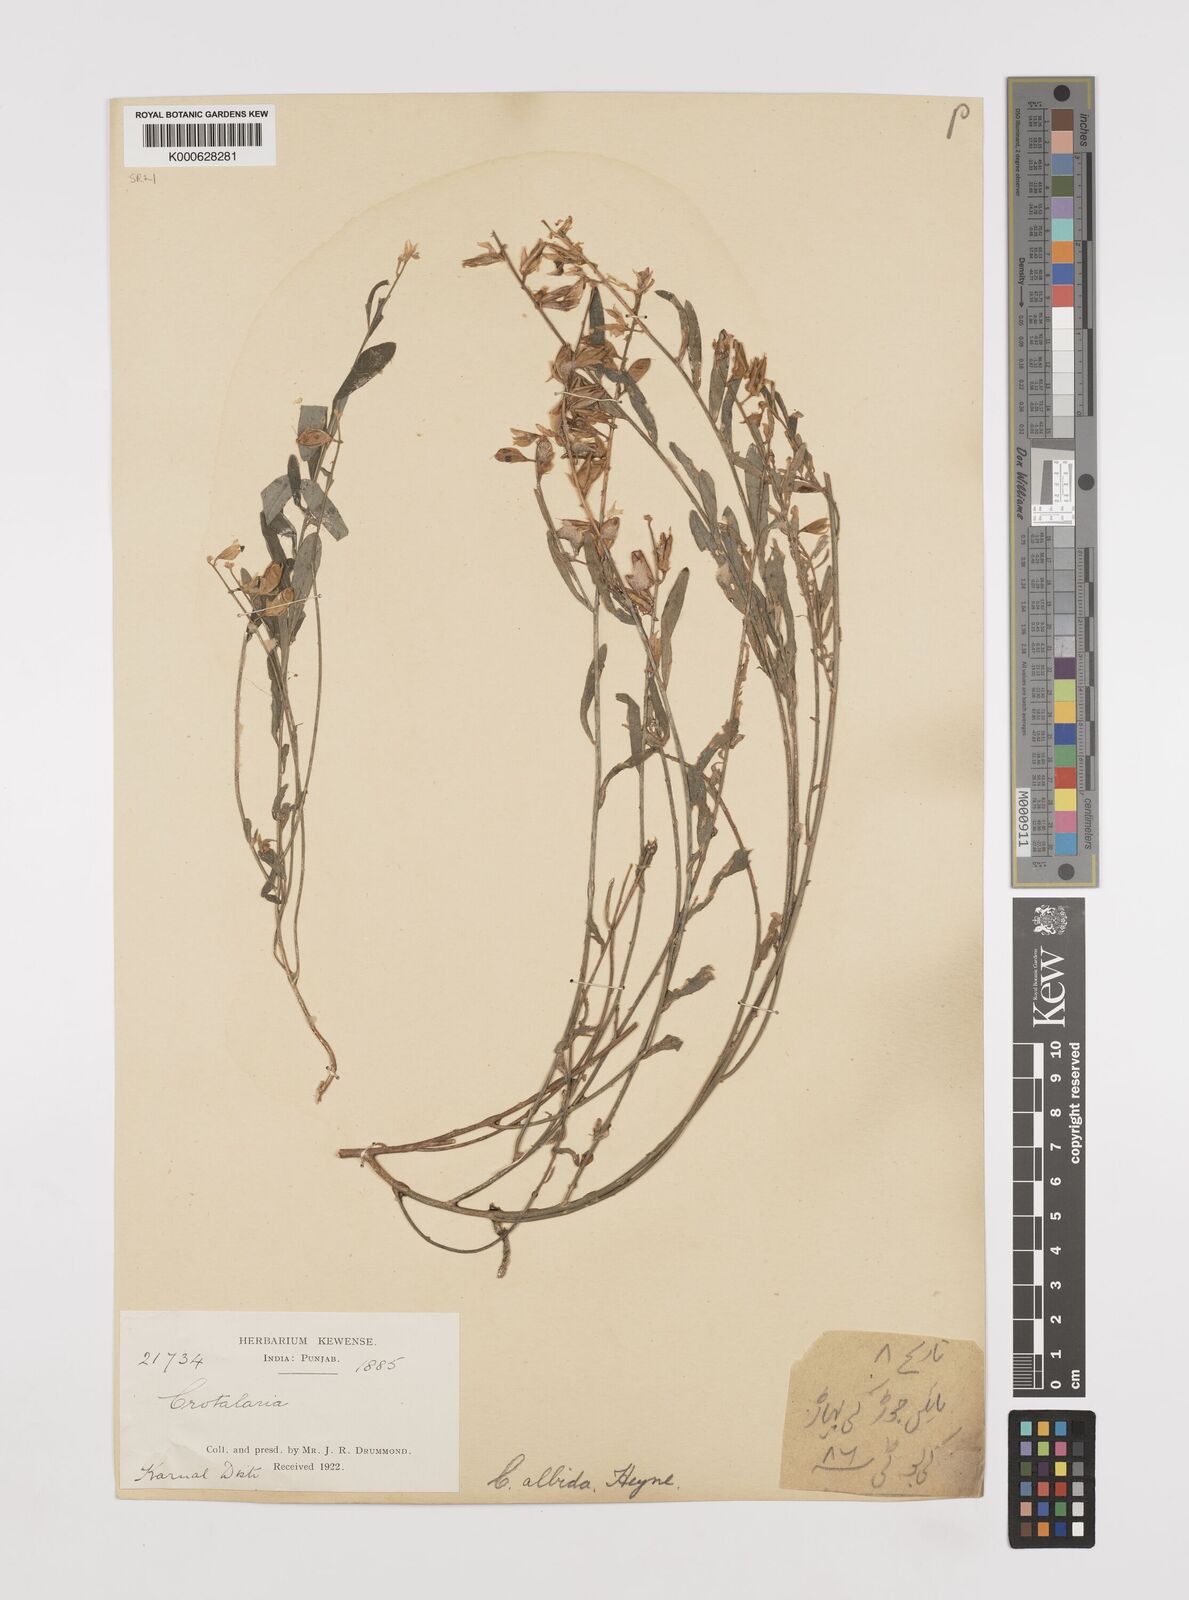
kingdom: Plantae
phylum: Tracheophyta
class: Magnoliopsida
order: Fabales
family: Fabaceae
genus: Crotalaria
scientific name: Crotalaria albida
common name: Taiwan crotalaria
